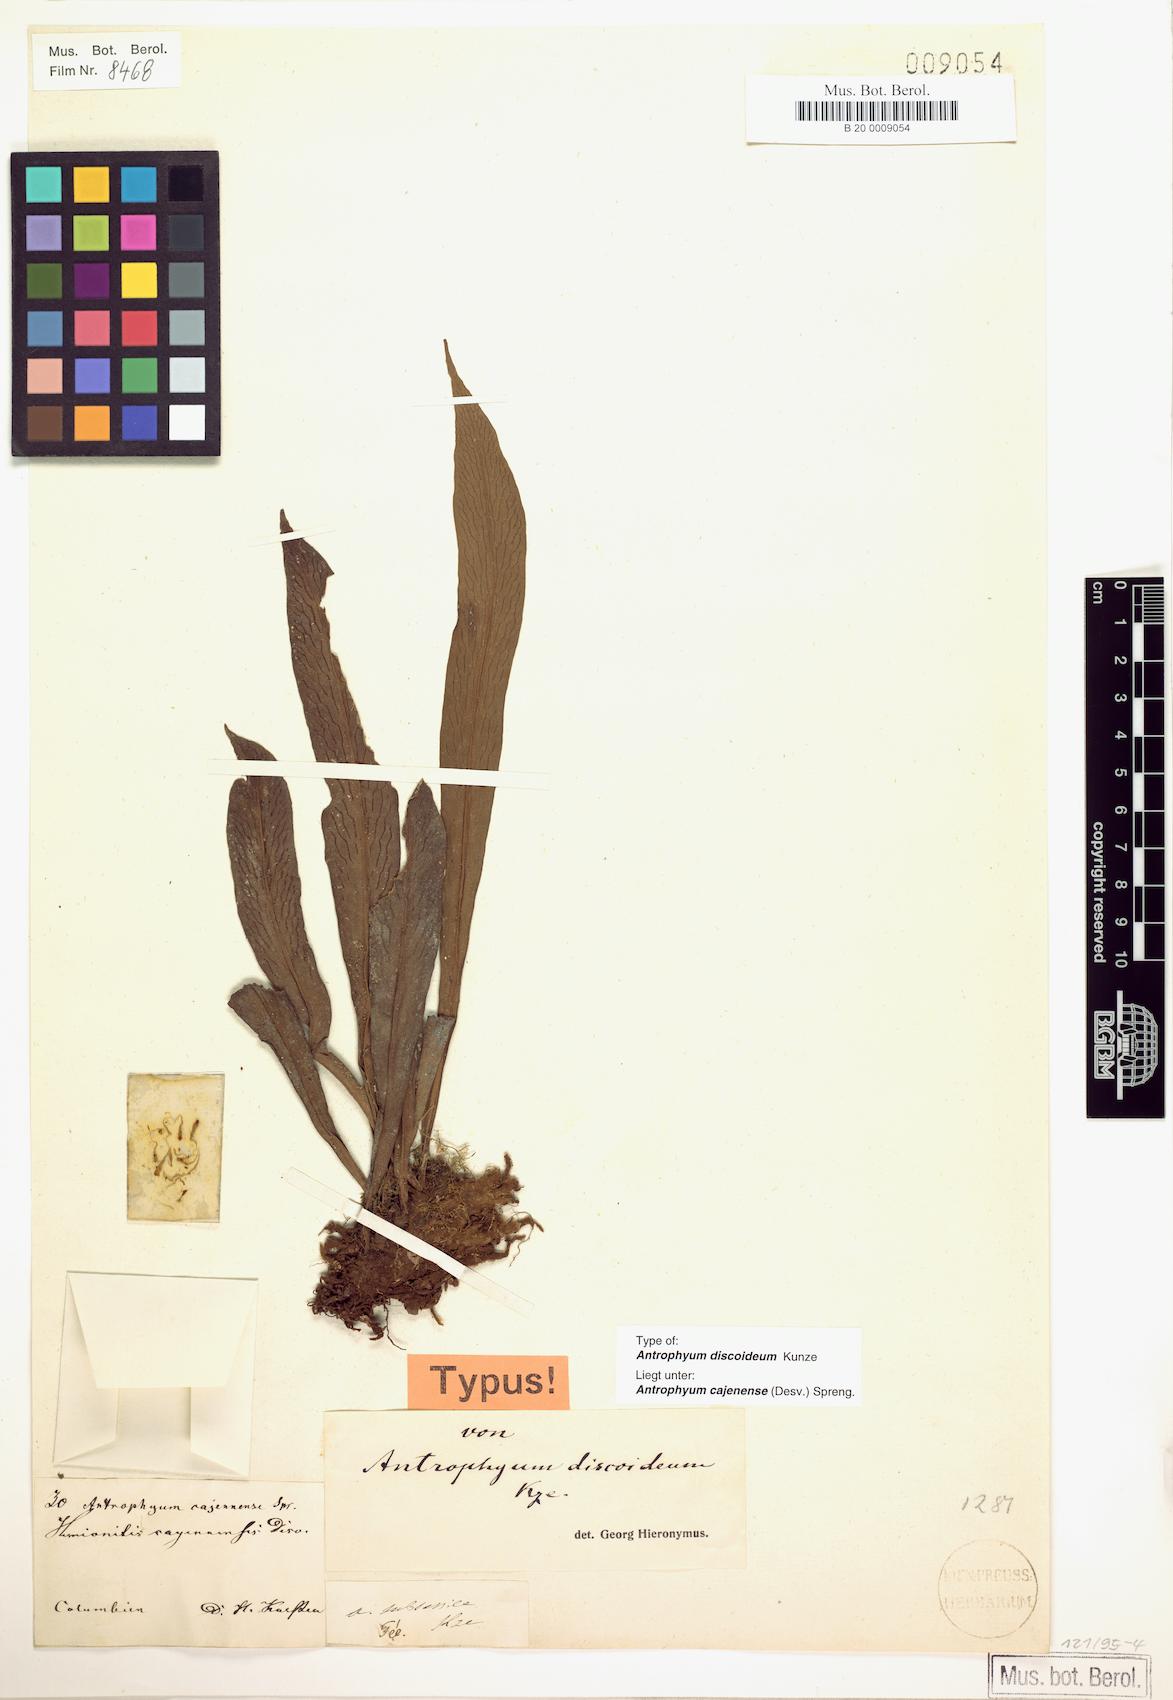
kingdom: Plantae
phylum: Tracheophyta
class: Polypodiopsida
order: Polypodiales
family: Pteridaceae
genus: Polytaenium
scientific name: Polytaenium cajenense
